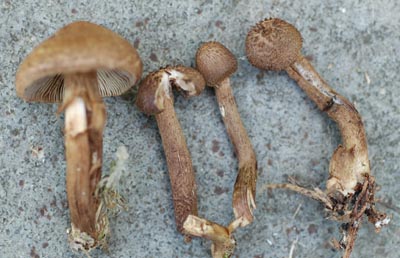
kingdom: Fungi
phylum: Basidiomycota
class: Agaricomycetes
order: Agaricales
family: Inocybaceae
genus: Inocybe
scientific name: Inocybe stellatospora
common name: spidsskællet trævlhat
